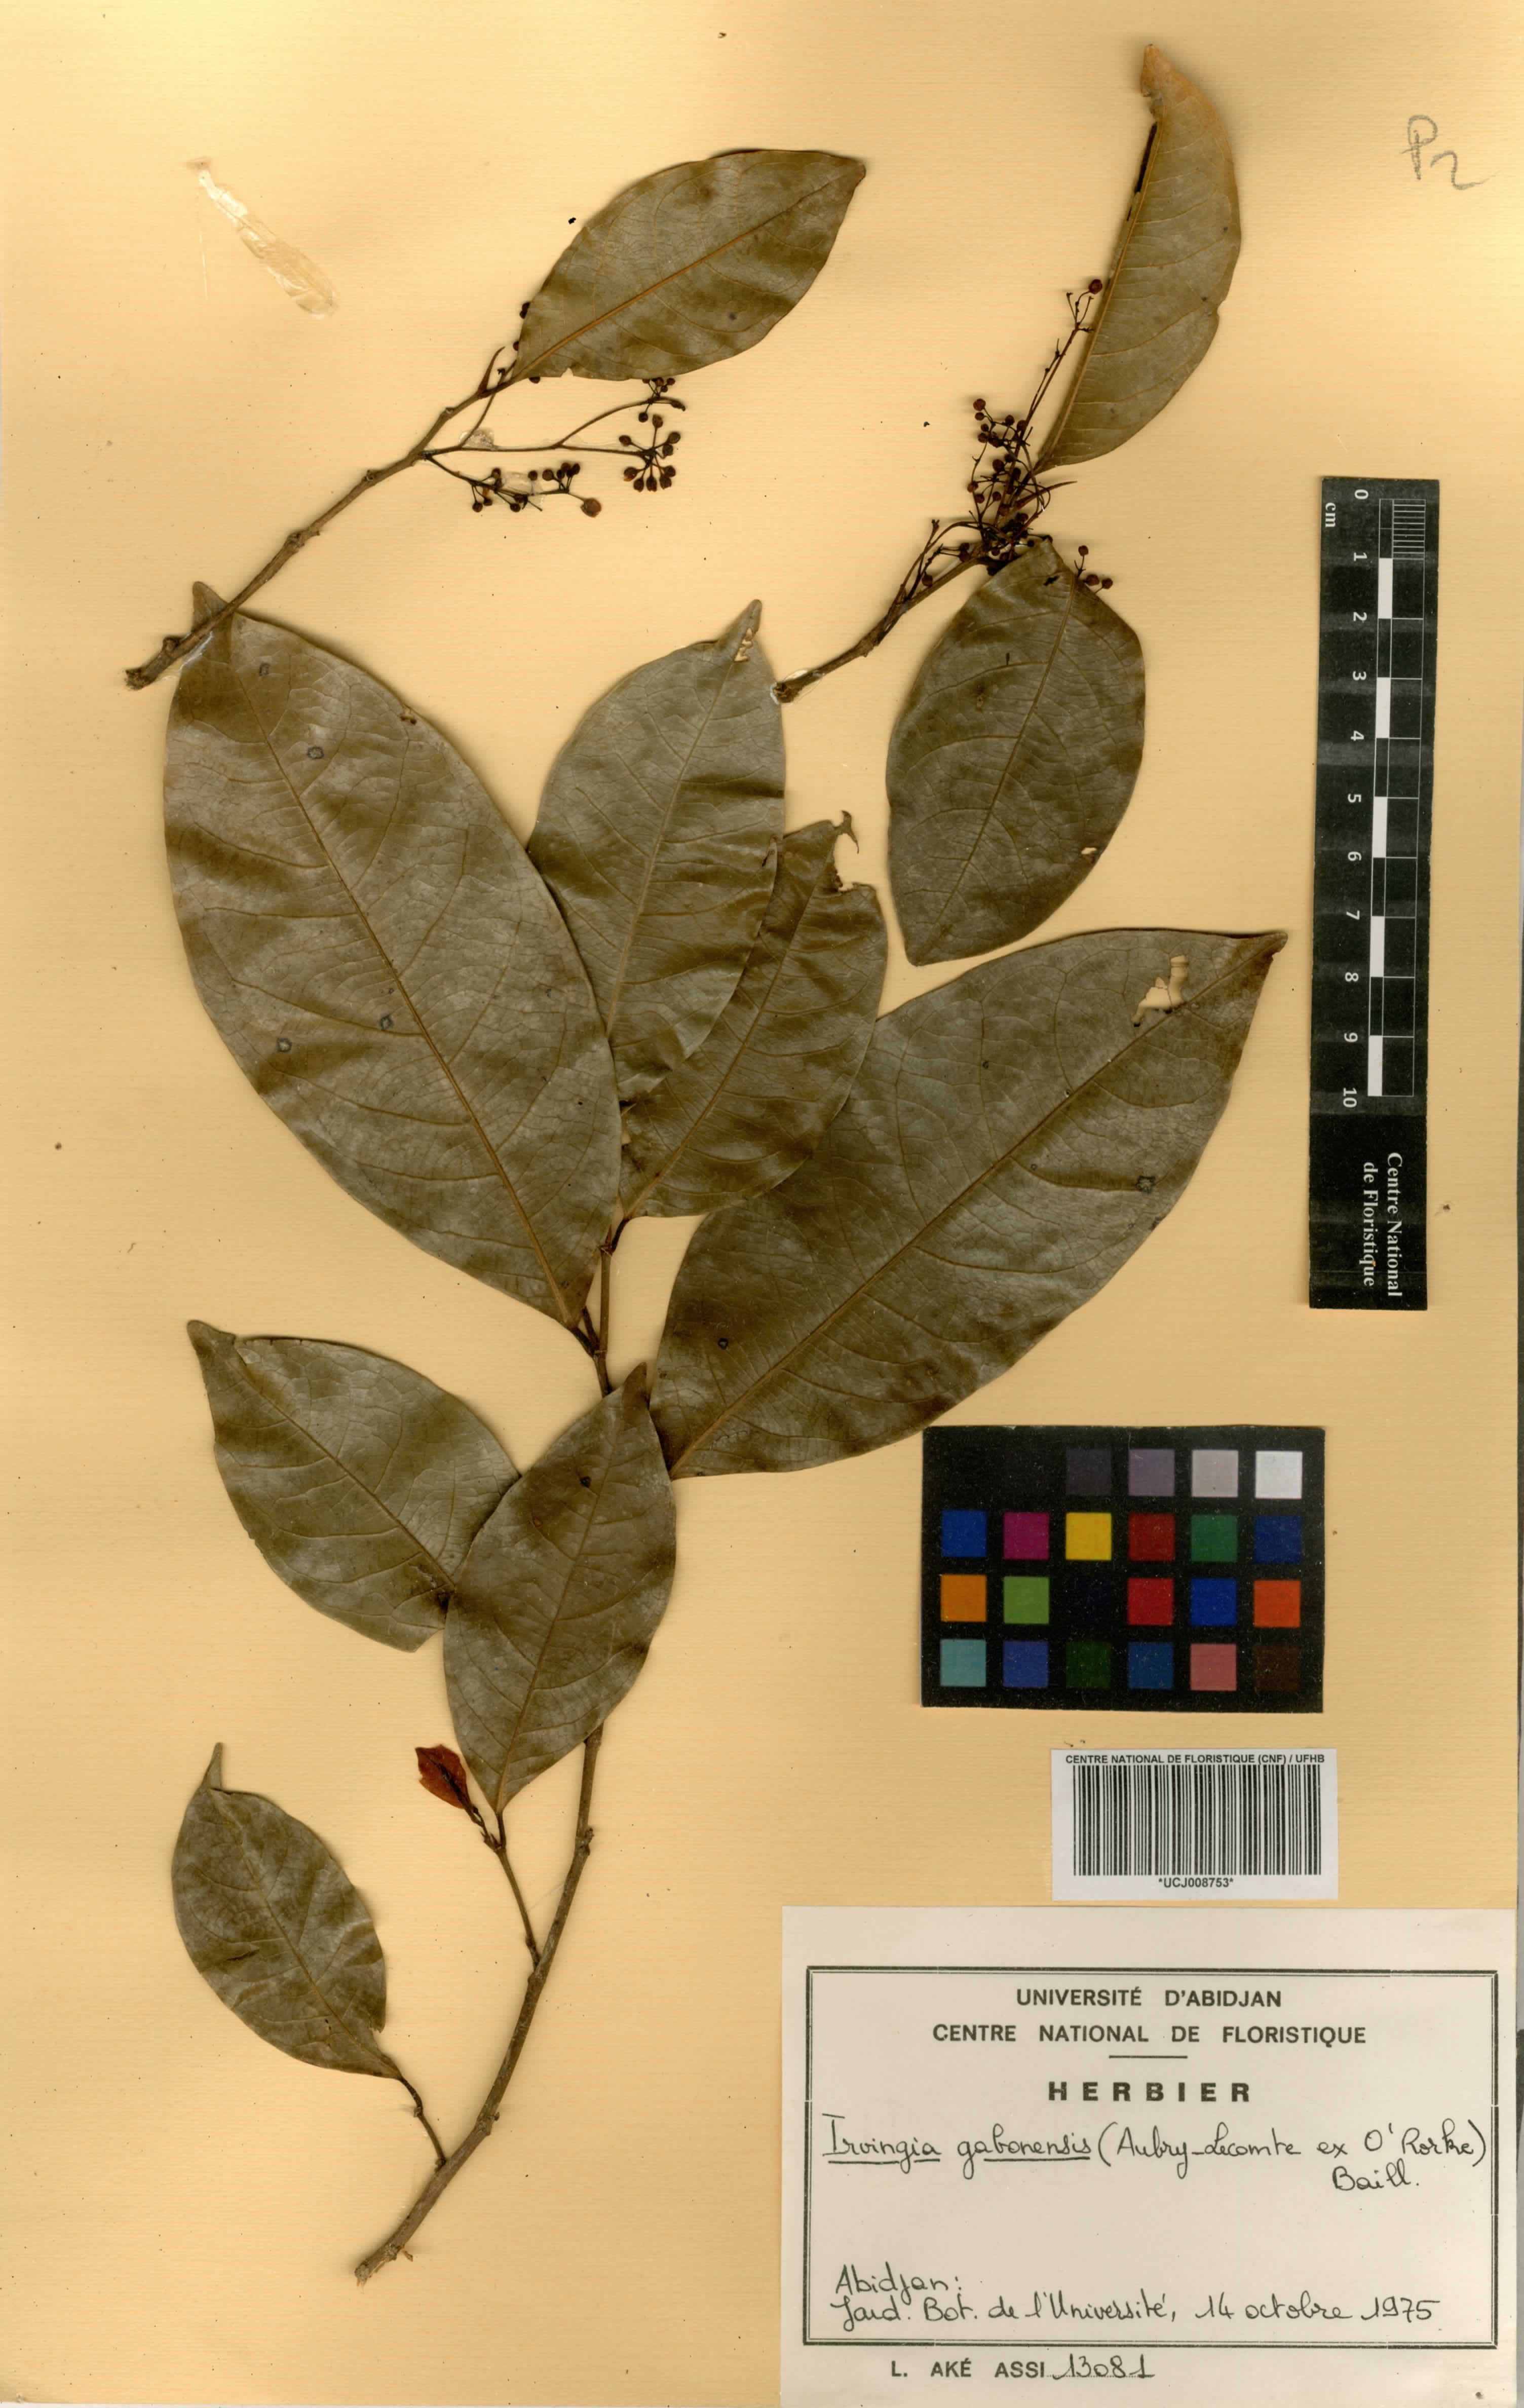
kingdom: Plantae
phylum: Tracheophyta
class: Magnoliopsida
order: Malpighiales
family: Irvingiaceae
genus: Irvingia
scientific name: Irvingia gabonensis
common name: Rainy season bush-mango
